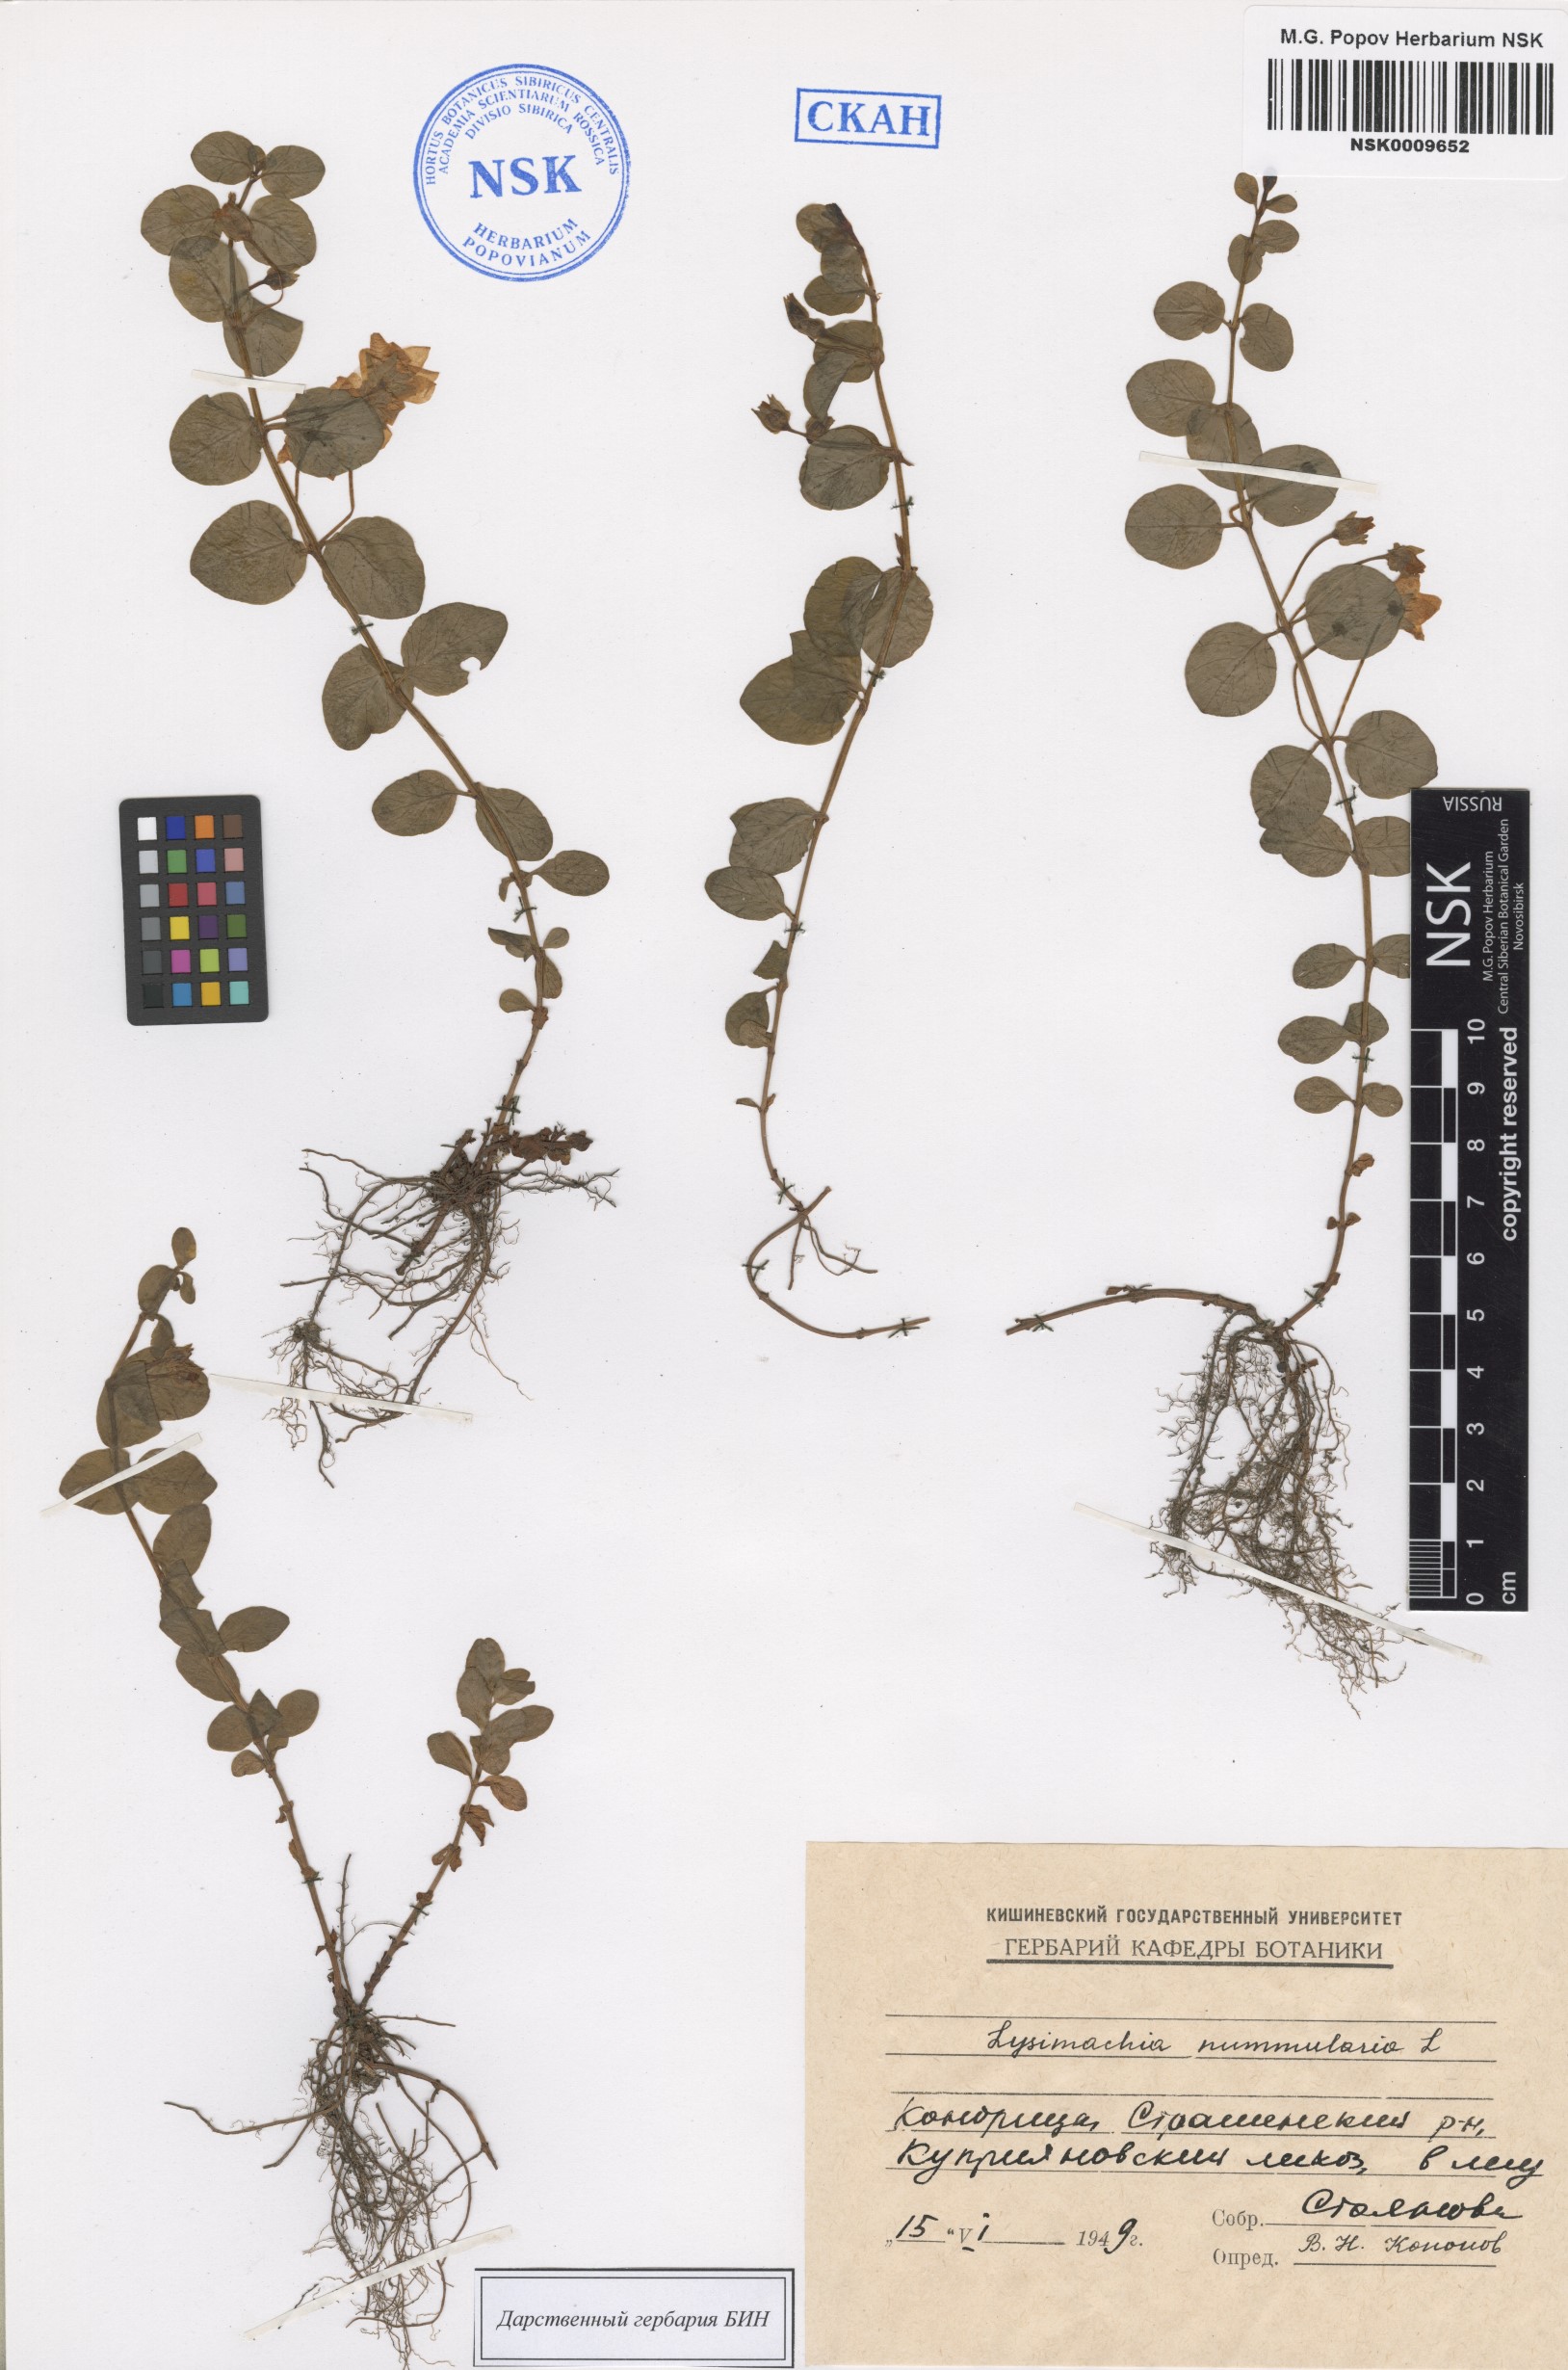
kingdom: Plantae
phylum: Tracheophyta
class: Magnoliopsida
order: Ericales
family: Primulaceae
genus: Lysimachia
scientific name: Lysimachia nummularia
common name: Moneywort
